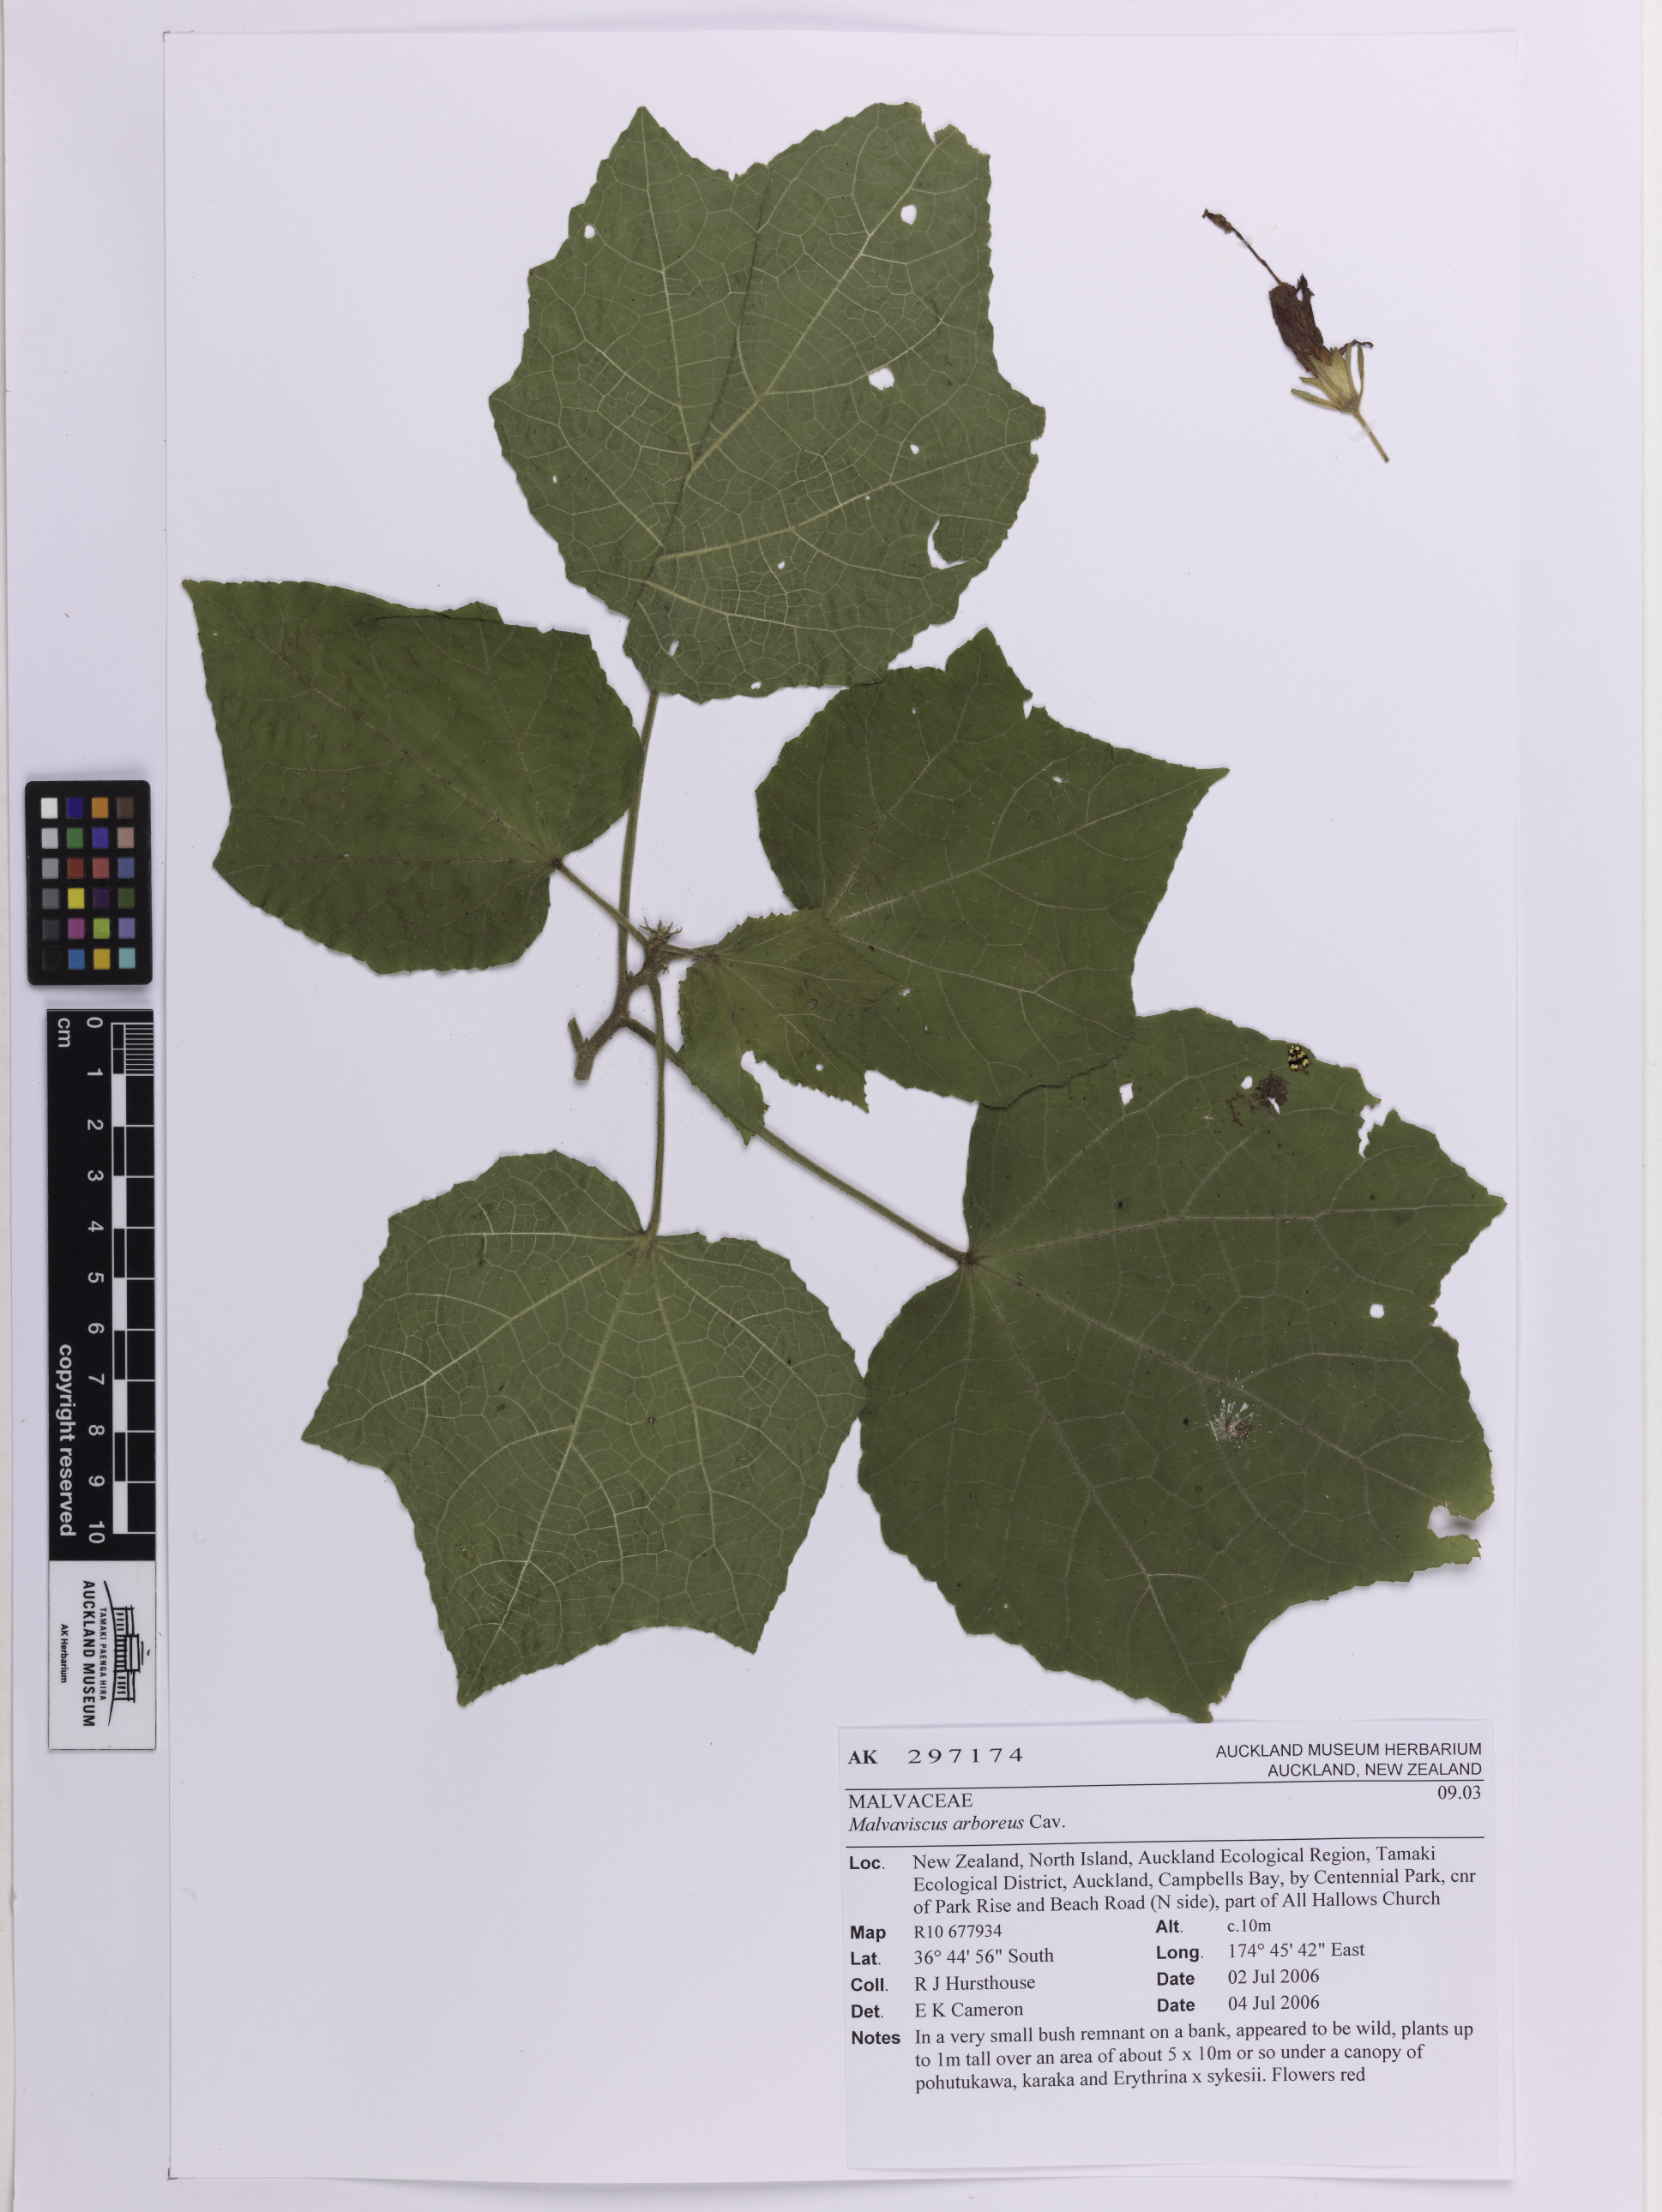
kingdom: Plantae
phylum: Tracheophyta
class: Magnoliopsida
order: Malvales
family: Malvaceae
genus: Malvaviscus
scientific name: Malvaviscus arboreus
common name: Wax mallow
